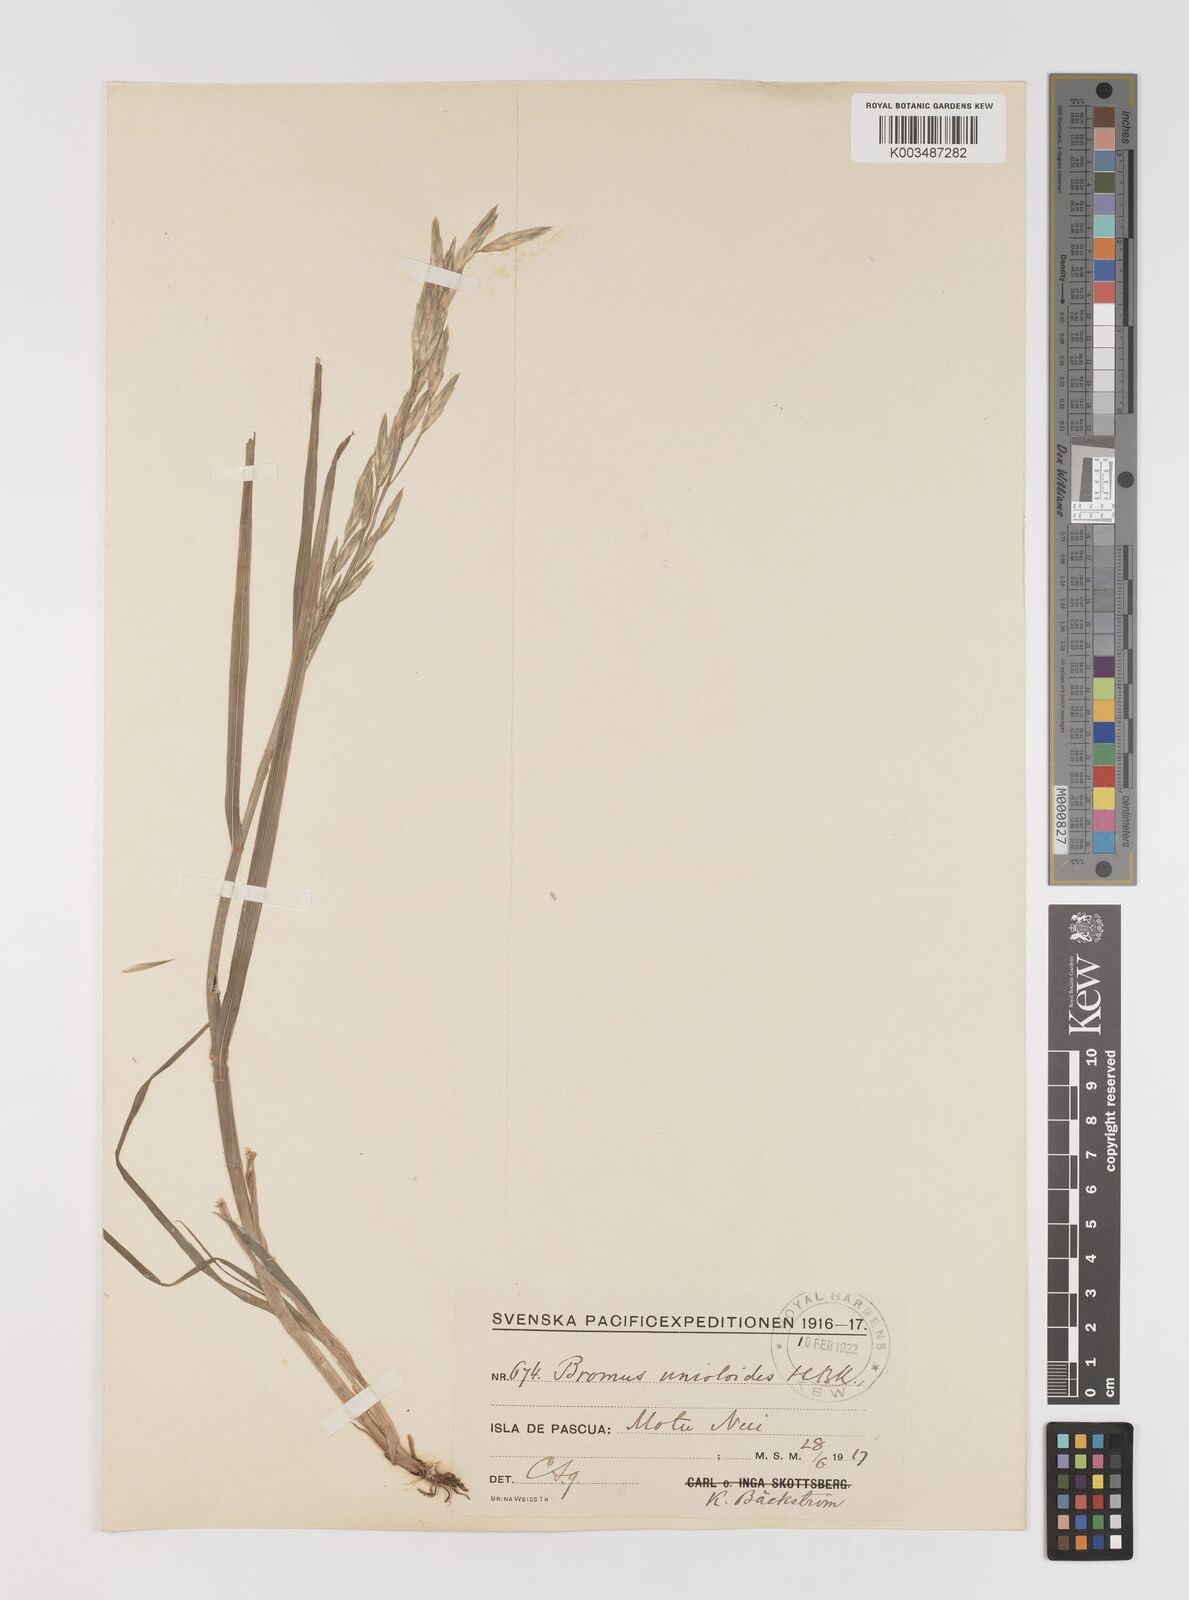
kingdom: Plantae
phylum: Tracheophyta
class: Liliopsida
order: Poales
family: Poaceae
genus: Bromus
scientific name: Bromus catharticus
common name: Rescuegrass
